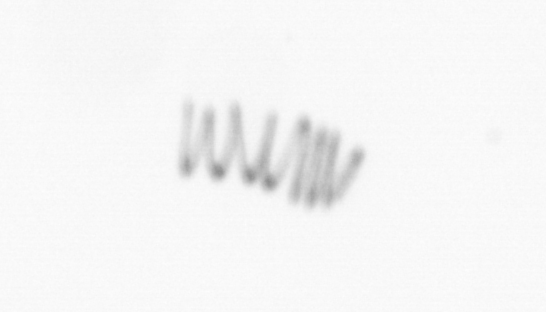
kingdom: Chromista
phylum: Ochrophyta
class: Bacillariophyceae
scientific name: Bacillariophyceae
